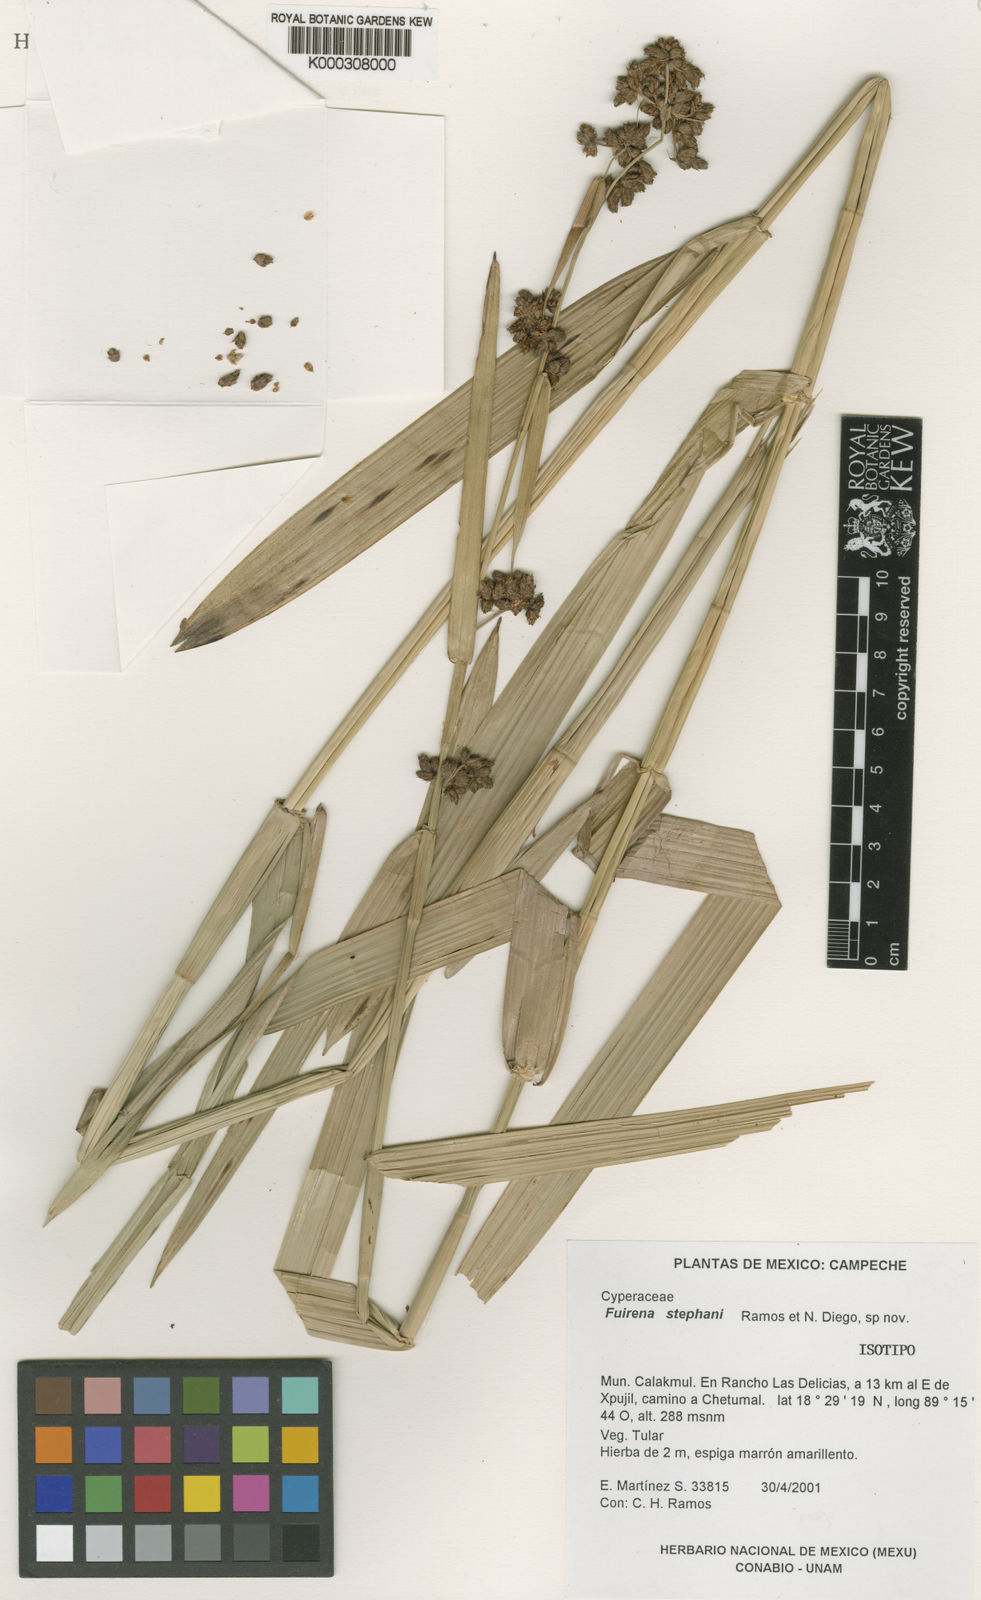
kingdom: Plantae
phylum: Tracheophyta
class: Liliopsida
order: Poales
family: Cyperaceae
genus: Fuirena
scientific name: Fuirena stephani
